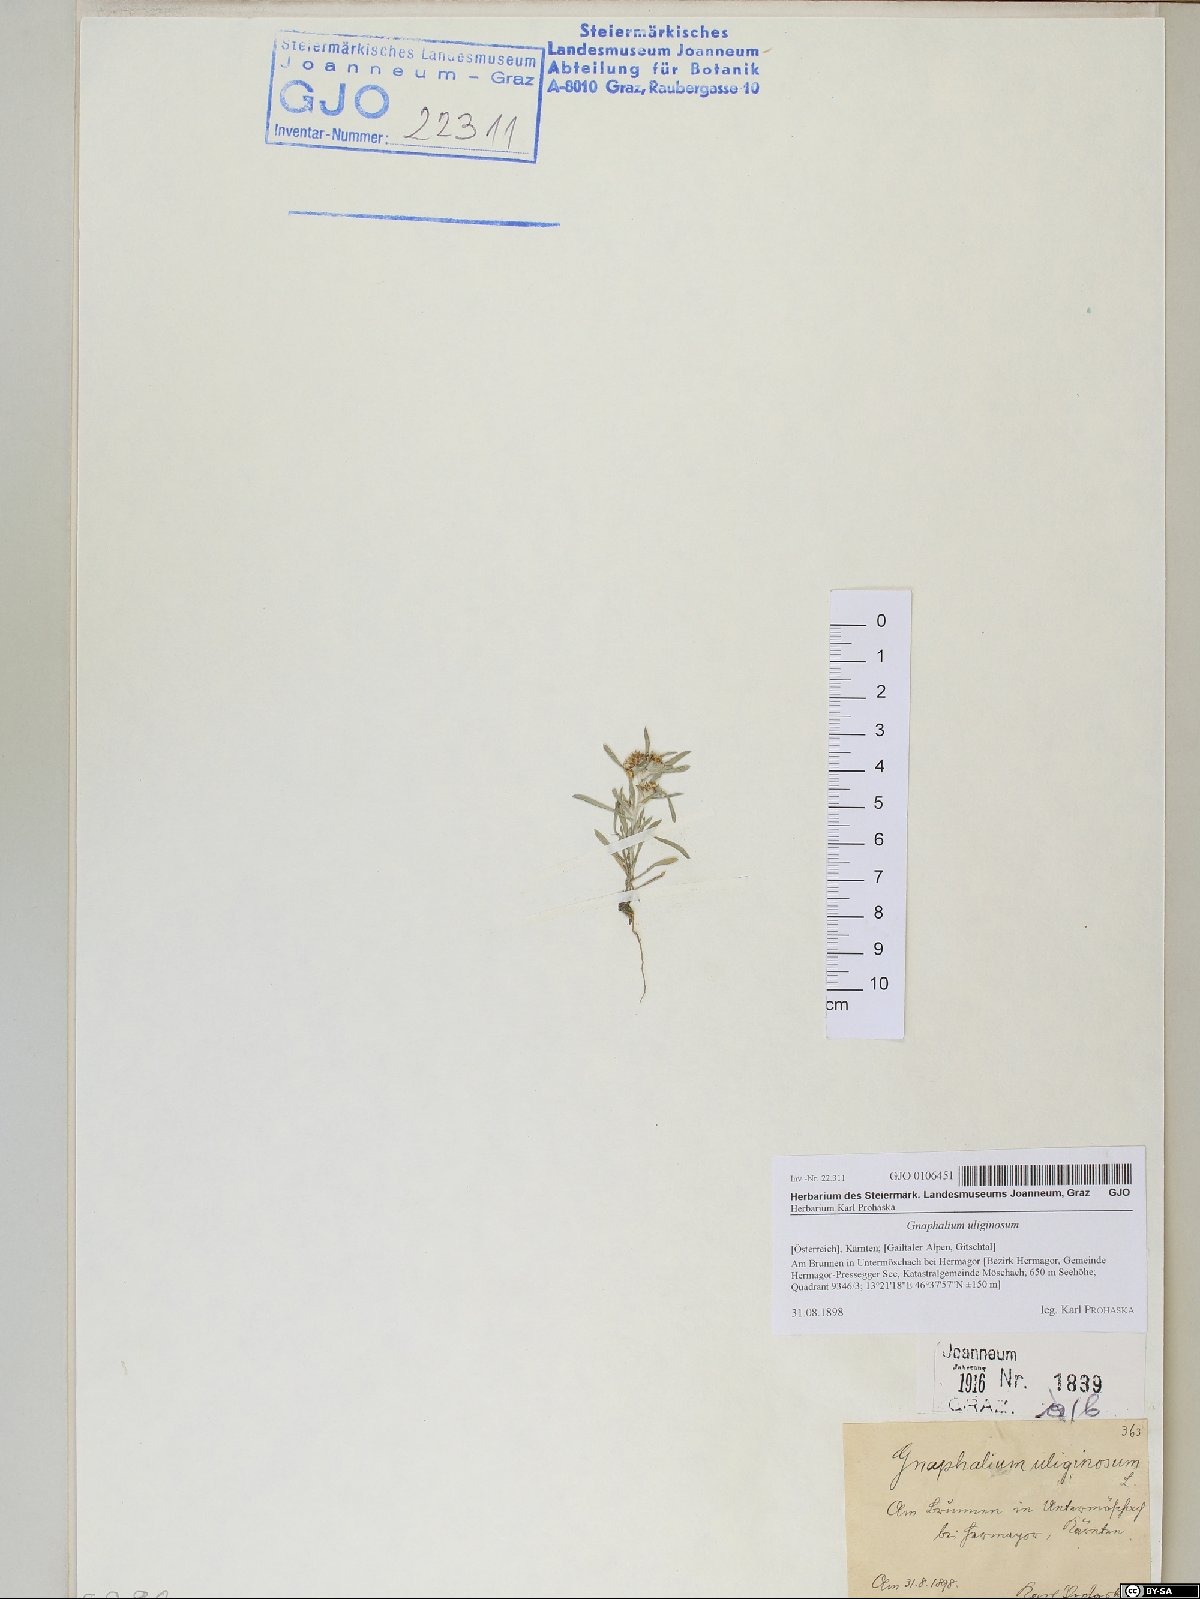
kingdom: Plantae
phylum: Tracheophyta
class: Magnoliopsida
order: Asterales
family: Asteraceae
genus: Gnaphalium
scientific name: Gnaphalium uliginosum
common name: Marsh cudweed
